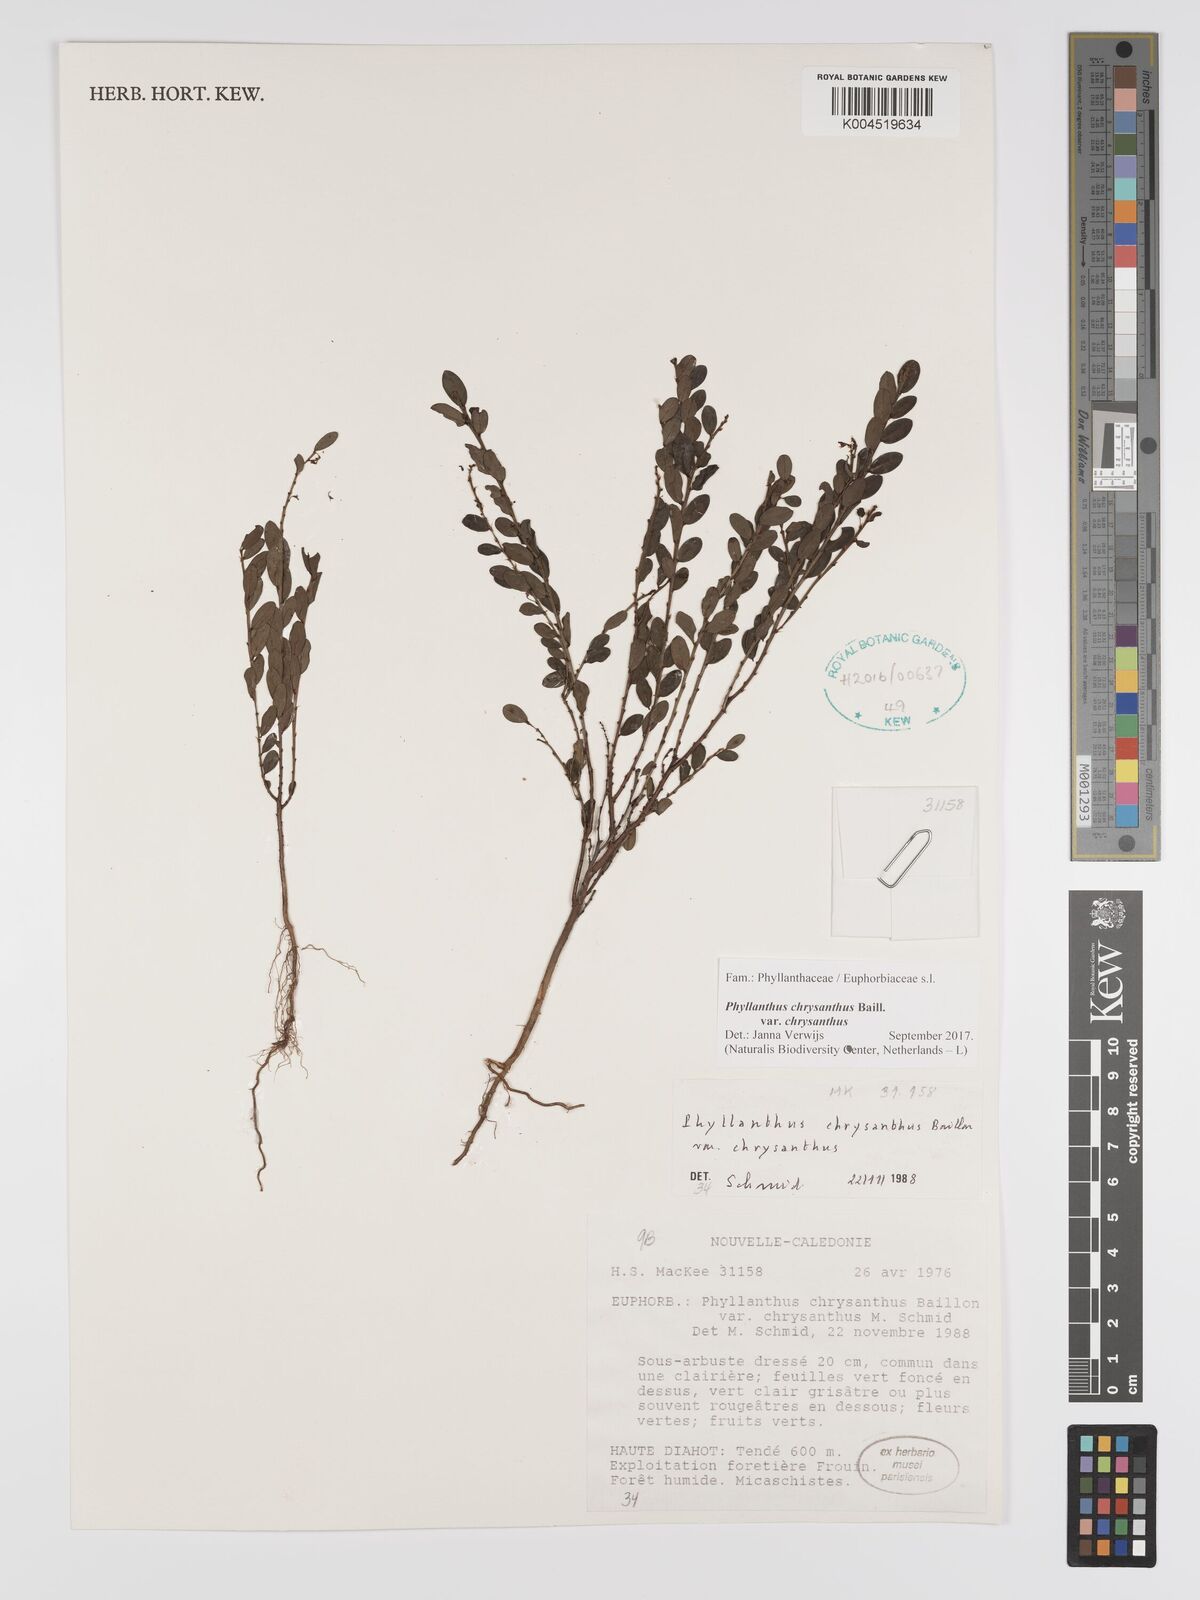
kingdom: Plantae
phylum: Tracheophyta
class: Magnoliopsida
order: Malpighiales
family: Phyllanthaceae
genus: Phyllanthus
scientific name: Phyllanthus chrysanthus
